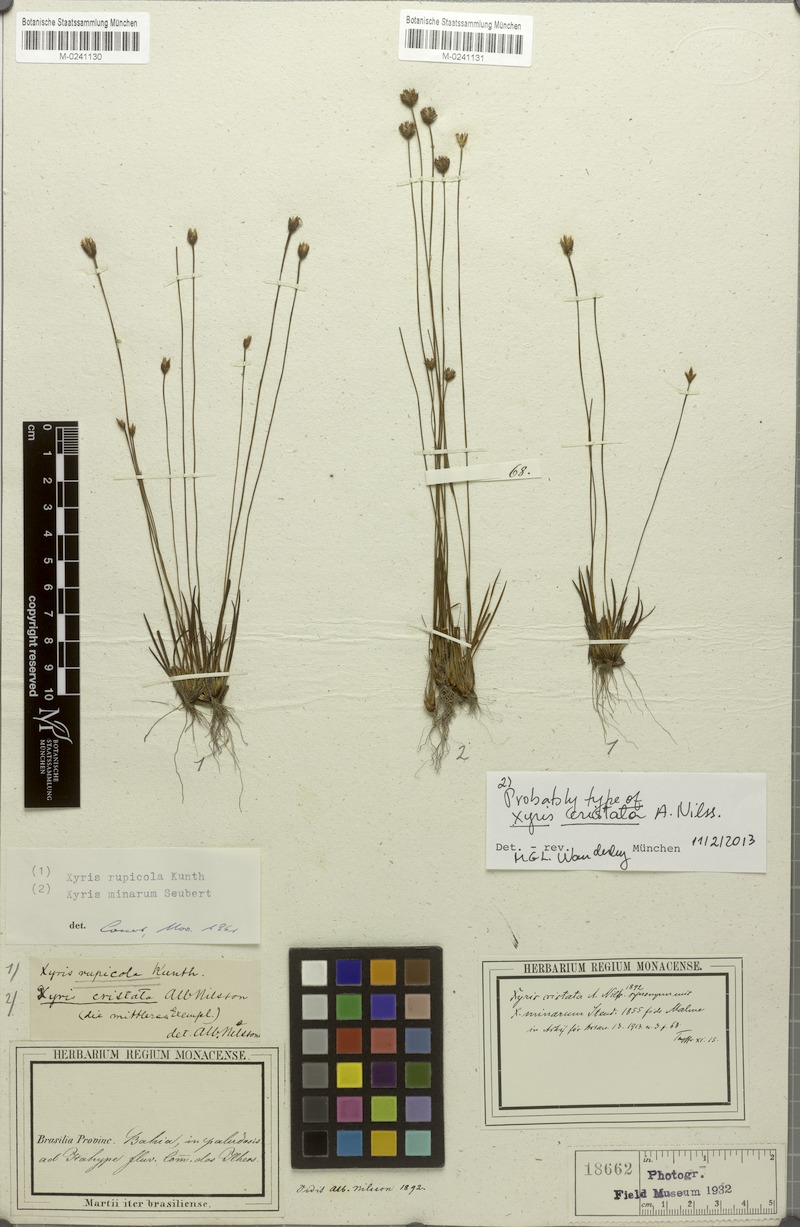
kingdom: Plantae
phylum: Tracheophyta
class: Liliopsida
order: Poales
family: Xyridaceae
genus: Xyris
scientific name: Xyris minarum
